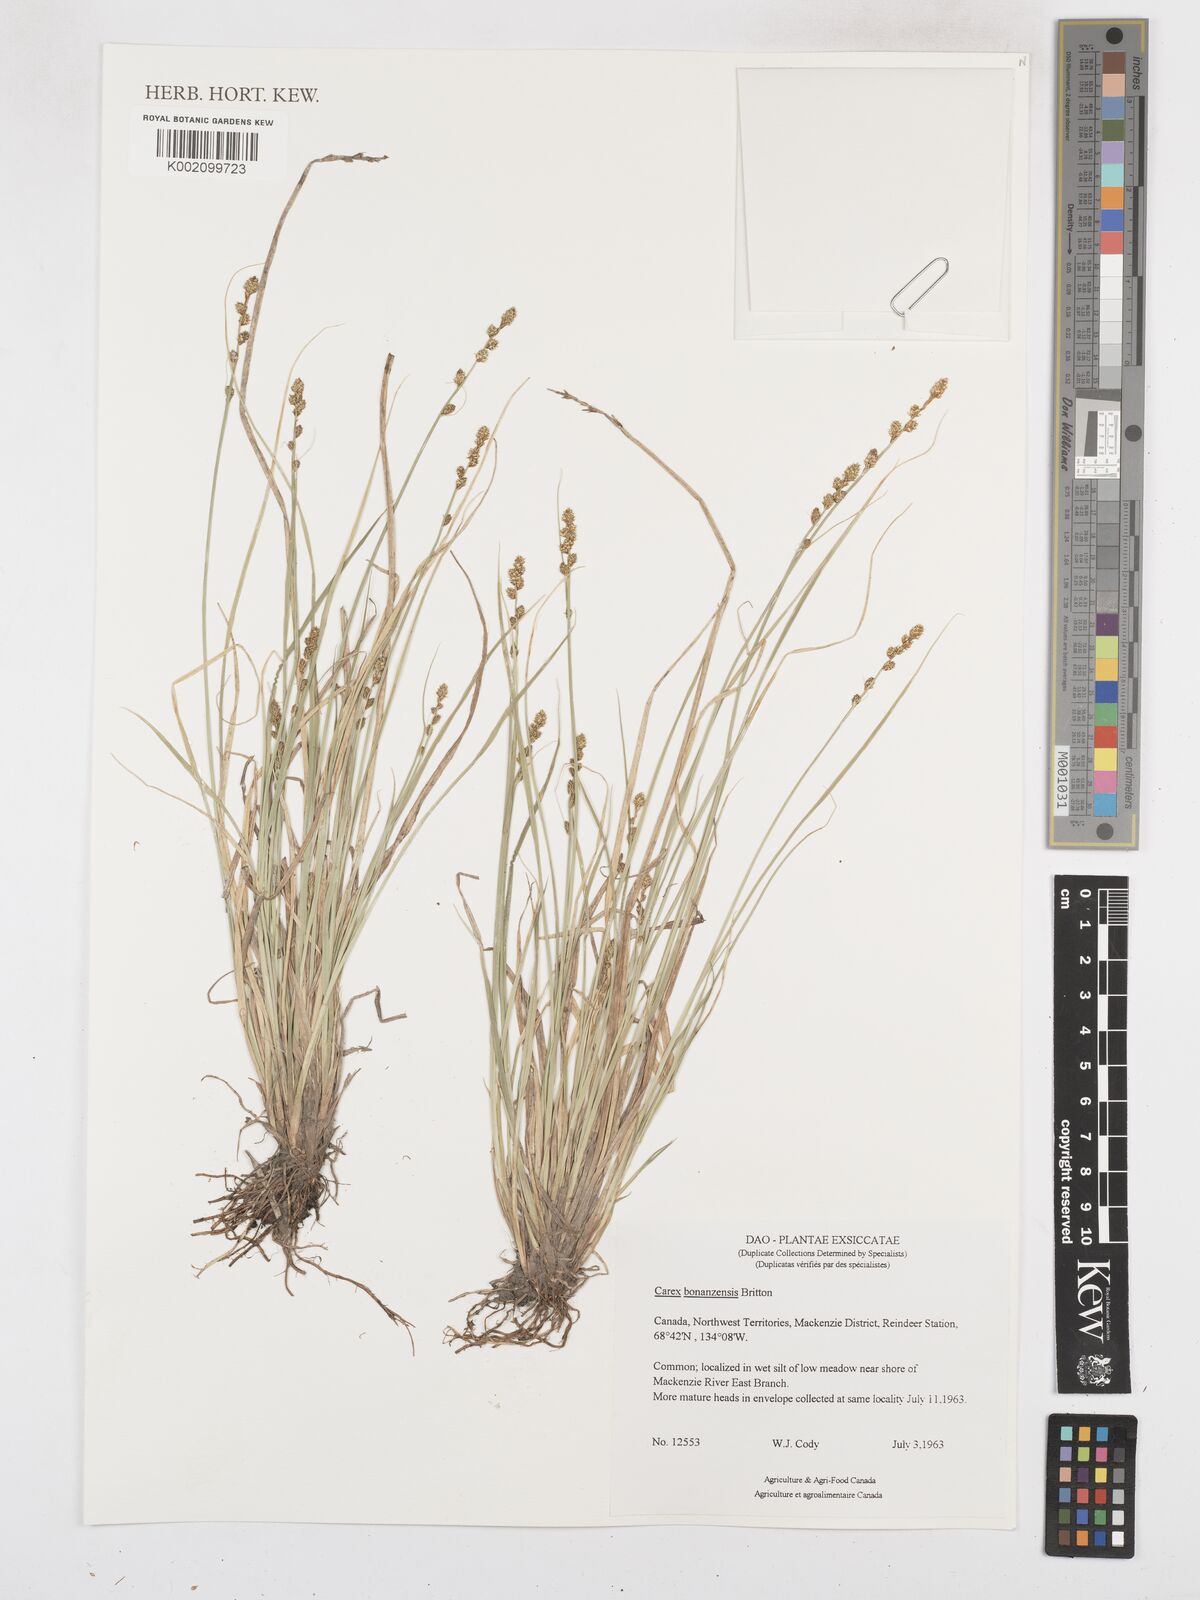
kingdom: Plantae
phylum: Tracheophyta
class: Liliopsida
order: Poales
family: Cyperaceae
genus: Carex
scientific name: Carex bonanzensis
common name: Yukon sedge
